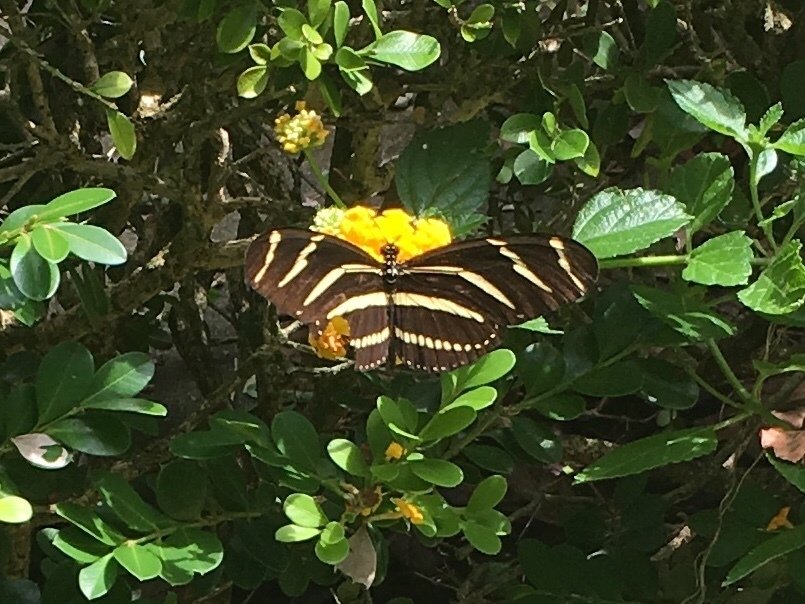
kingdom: Animalia
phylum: Arthropoda
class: Insecta
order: Lepidoptera
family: Nymphalidae
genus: Heliconius
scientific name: Heliconius charithonia
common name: Zebra Longwing
